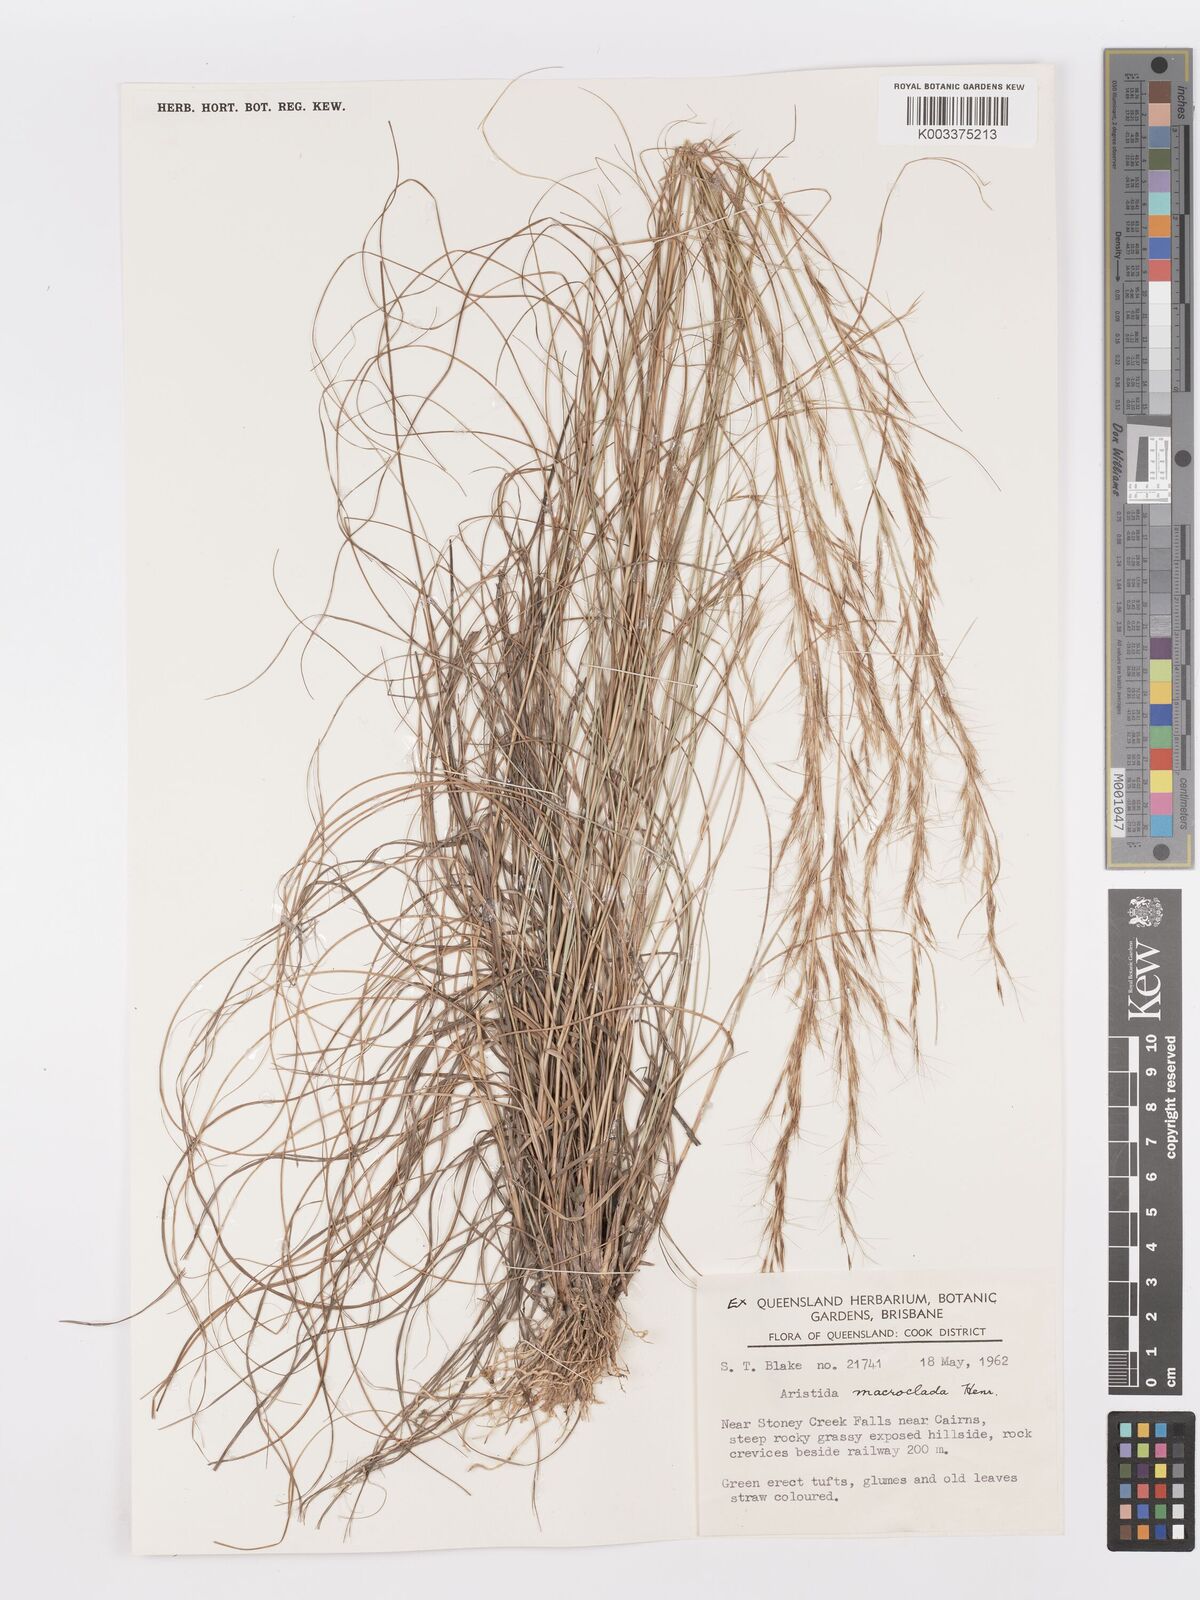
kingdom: Plantae
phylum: Tracheophyta
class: Liliopsida
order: Poales
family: Poaceae
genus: Aristida
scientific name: Aristida macroclada
